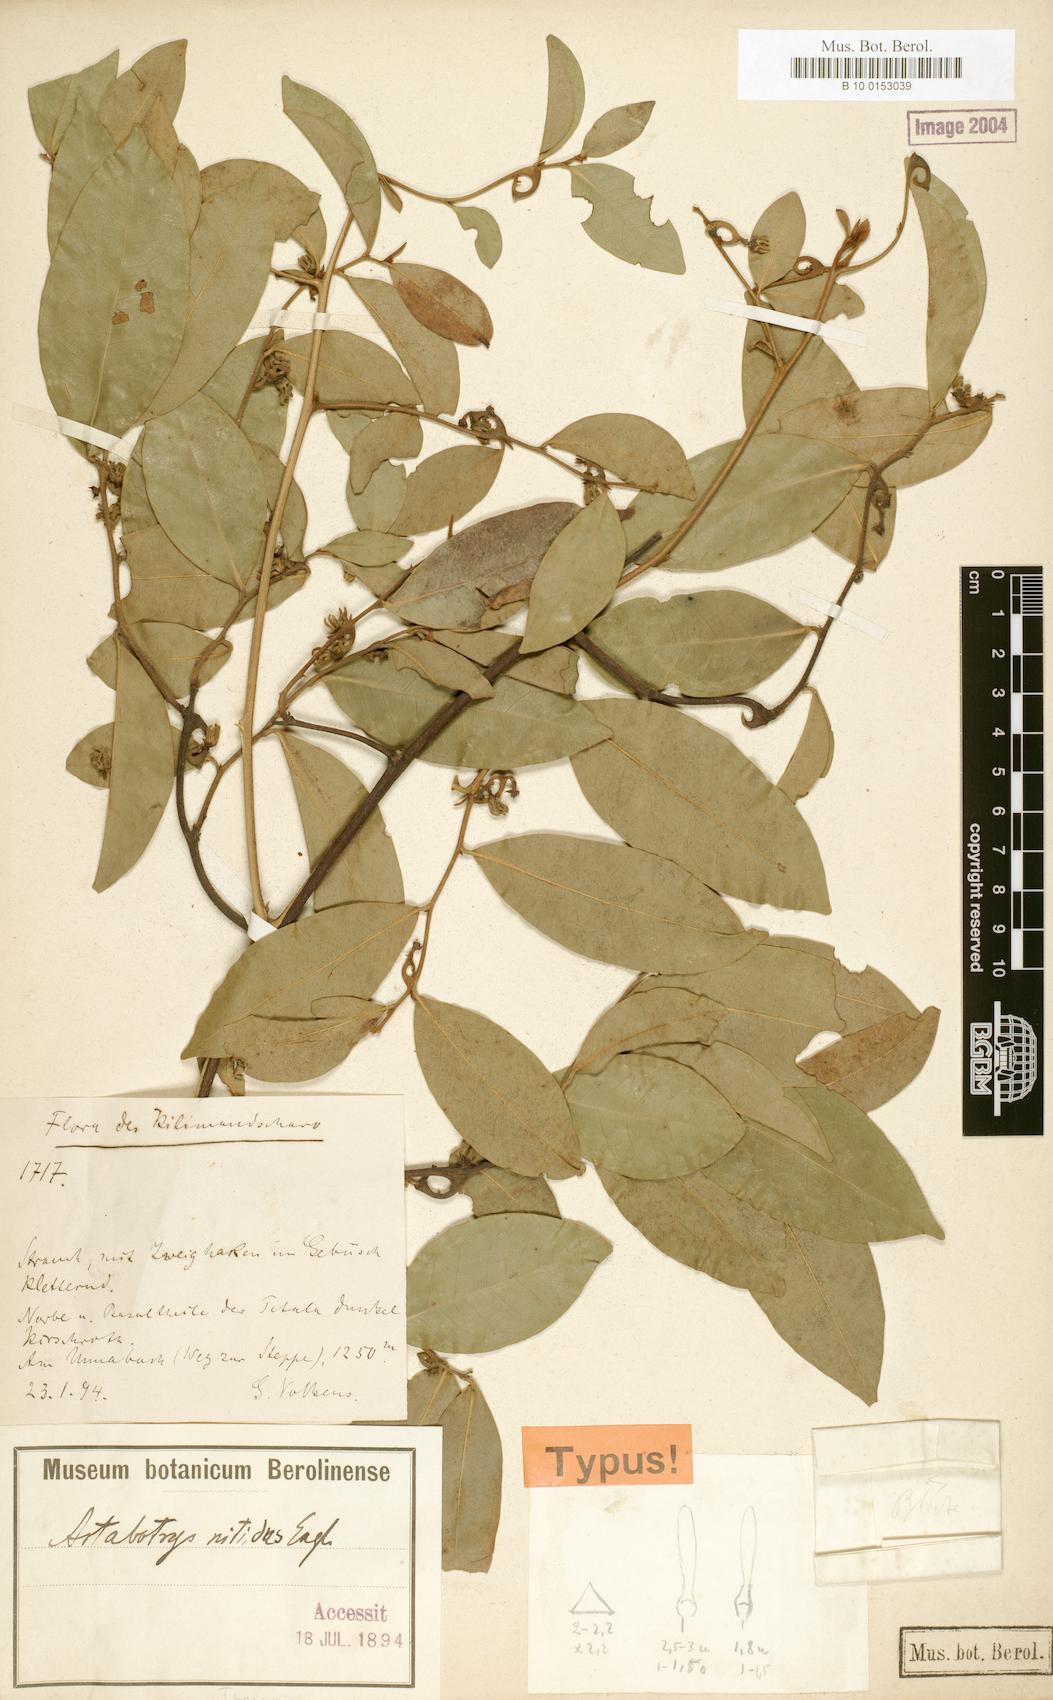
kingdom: Plantae
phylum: Tracheophyta
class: Magnoliopsida
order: Magnoliales
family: Annonaceae
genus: Artabotrys
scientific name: Artabotrys monteiroae
